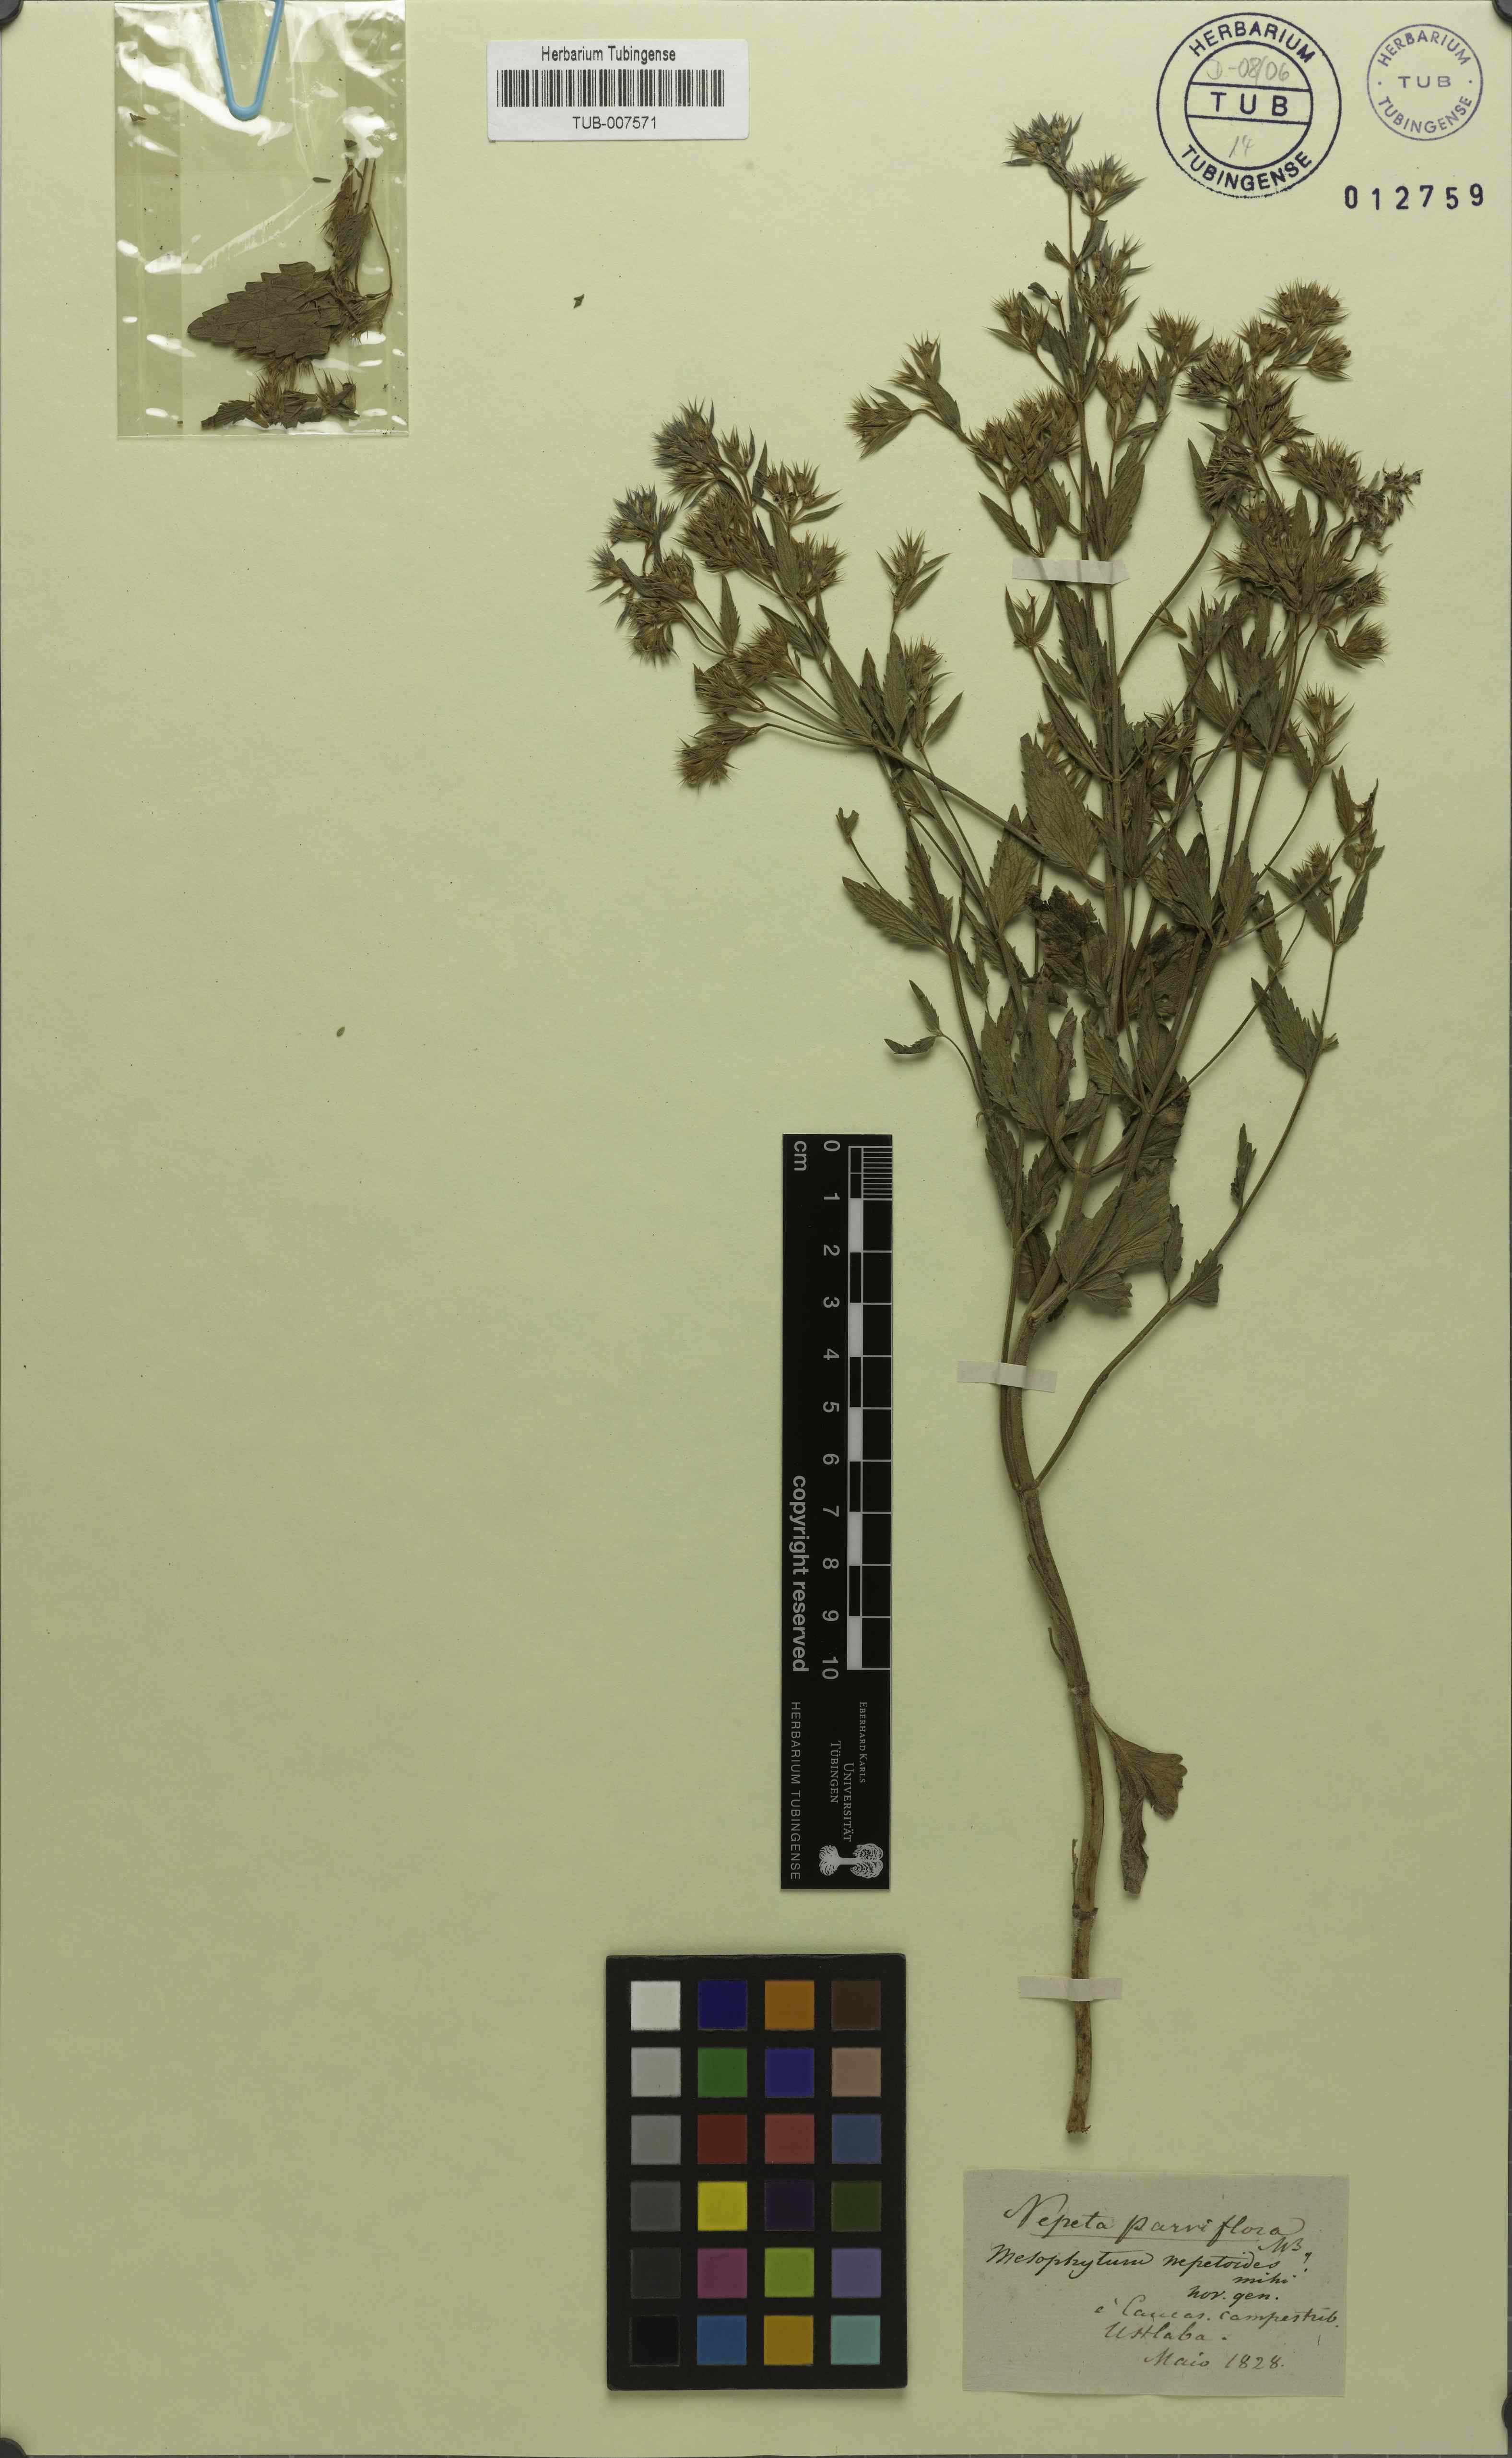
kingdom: Plantae
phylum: Tracheophyta
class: Magnoliopsida
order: Lamiales
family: Lamiaceae
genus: Nepeta
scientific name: Nepeta ucranica
